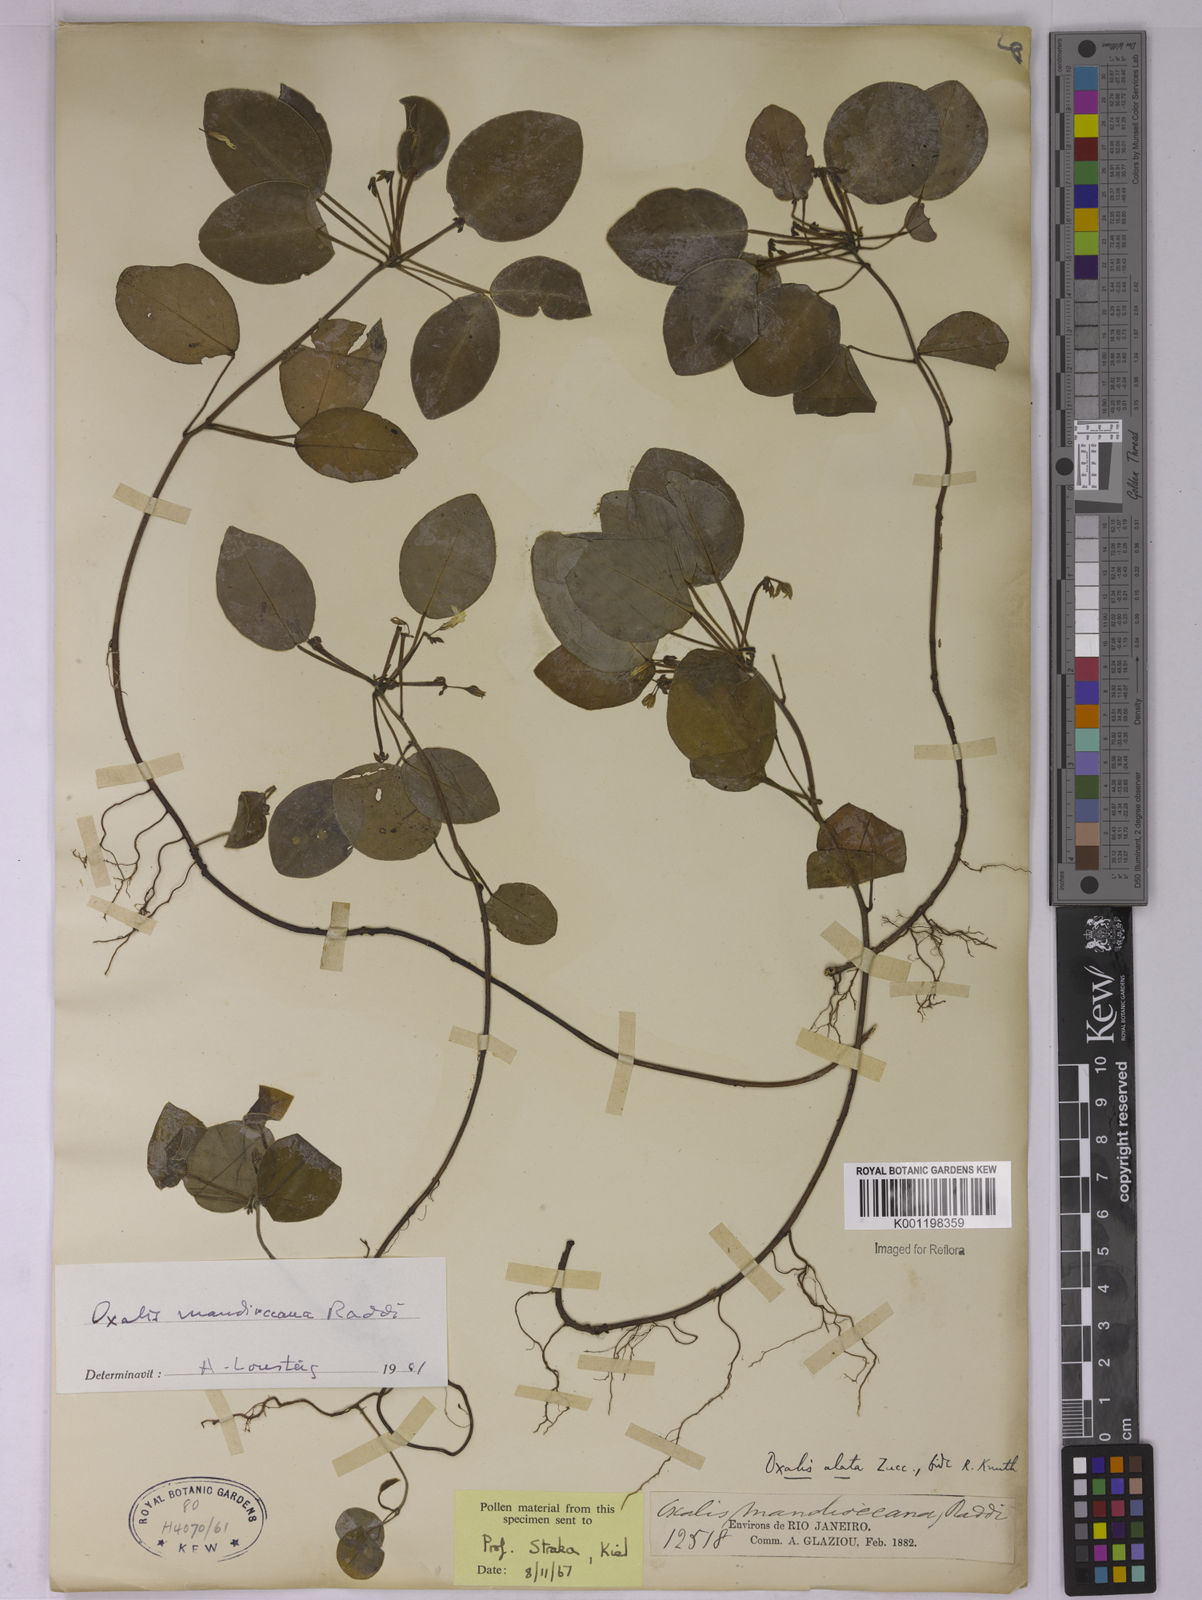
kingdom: Plantae
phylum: Tracheophyta
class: Magnoliopsida
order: Oxalidales
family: Oxalidaceae
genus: Oxalis
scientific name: Oxalis mandioccana
